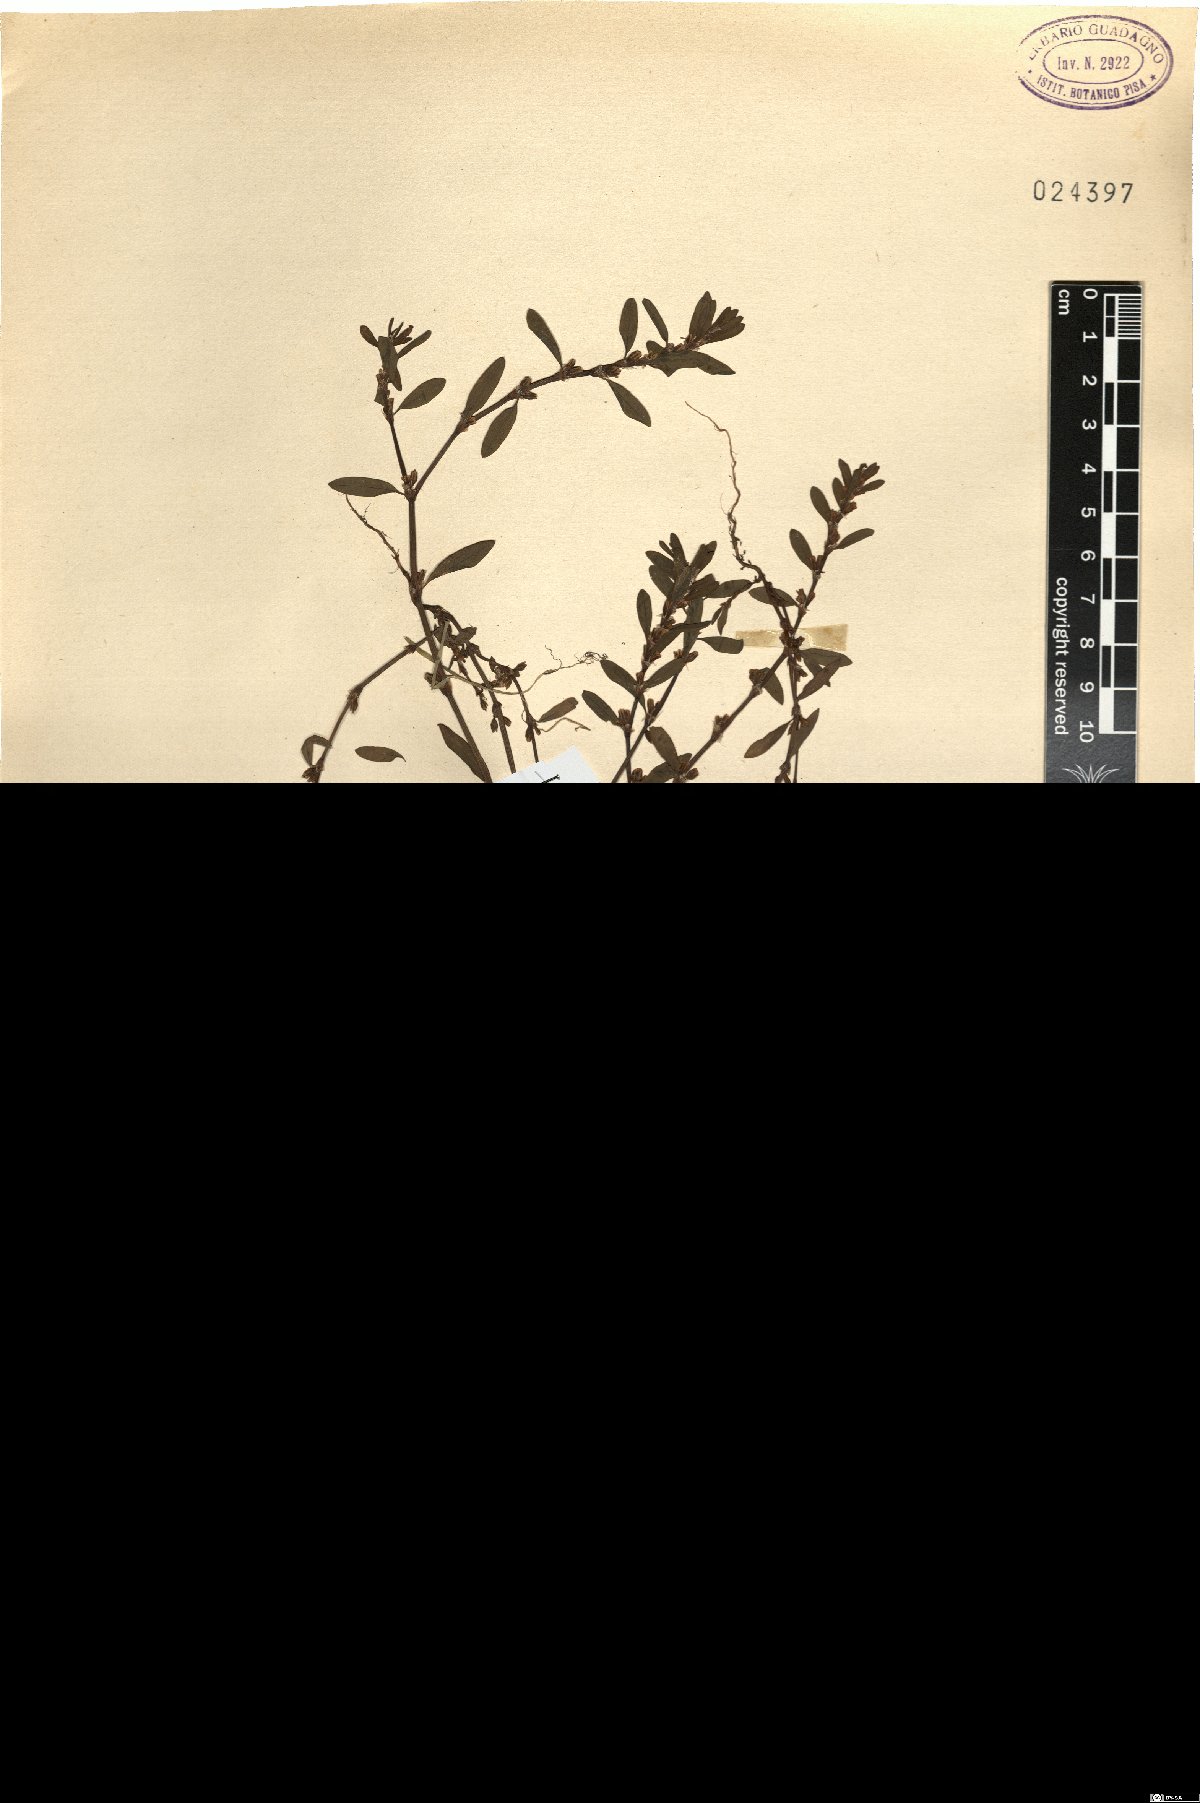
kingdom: Plantae
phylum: Tracheophyta
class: Magnoliopsida
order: Caryophyllales
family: Polygonaceae
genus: Polygonum
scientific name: Polygonum aviculare
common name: Prostrate knotweed
